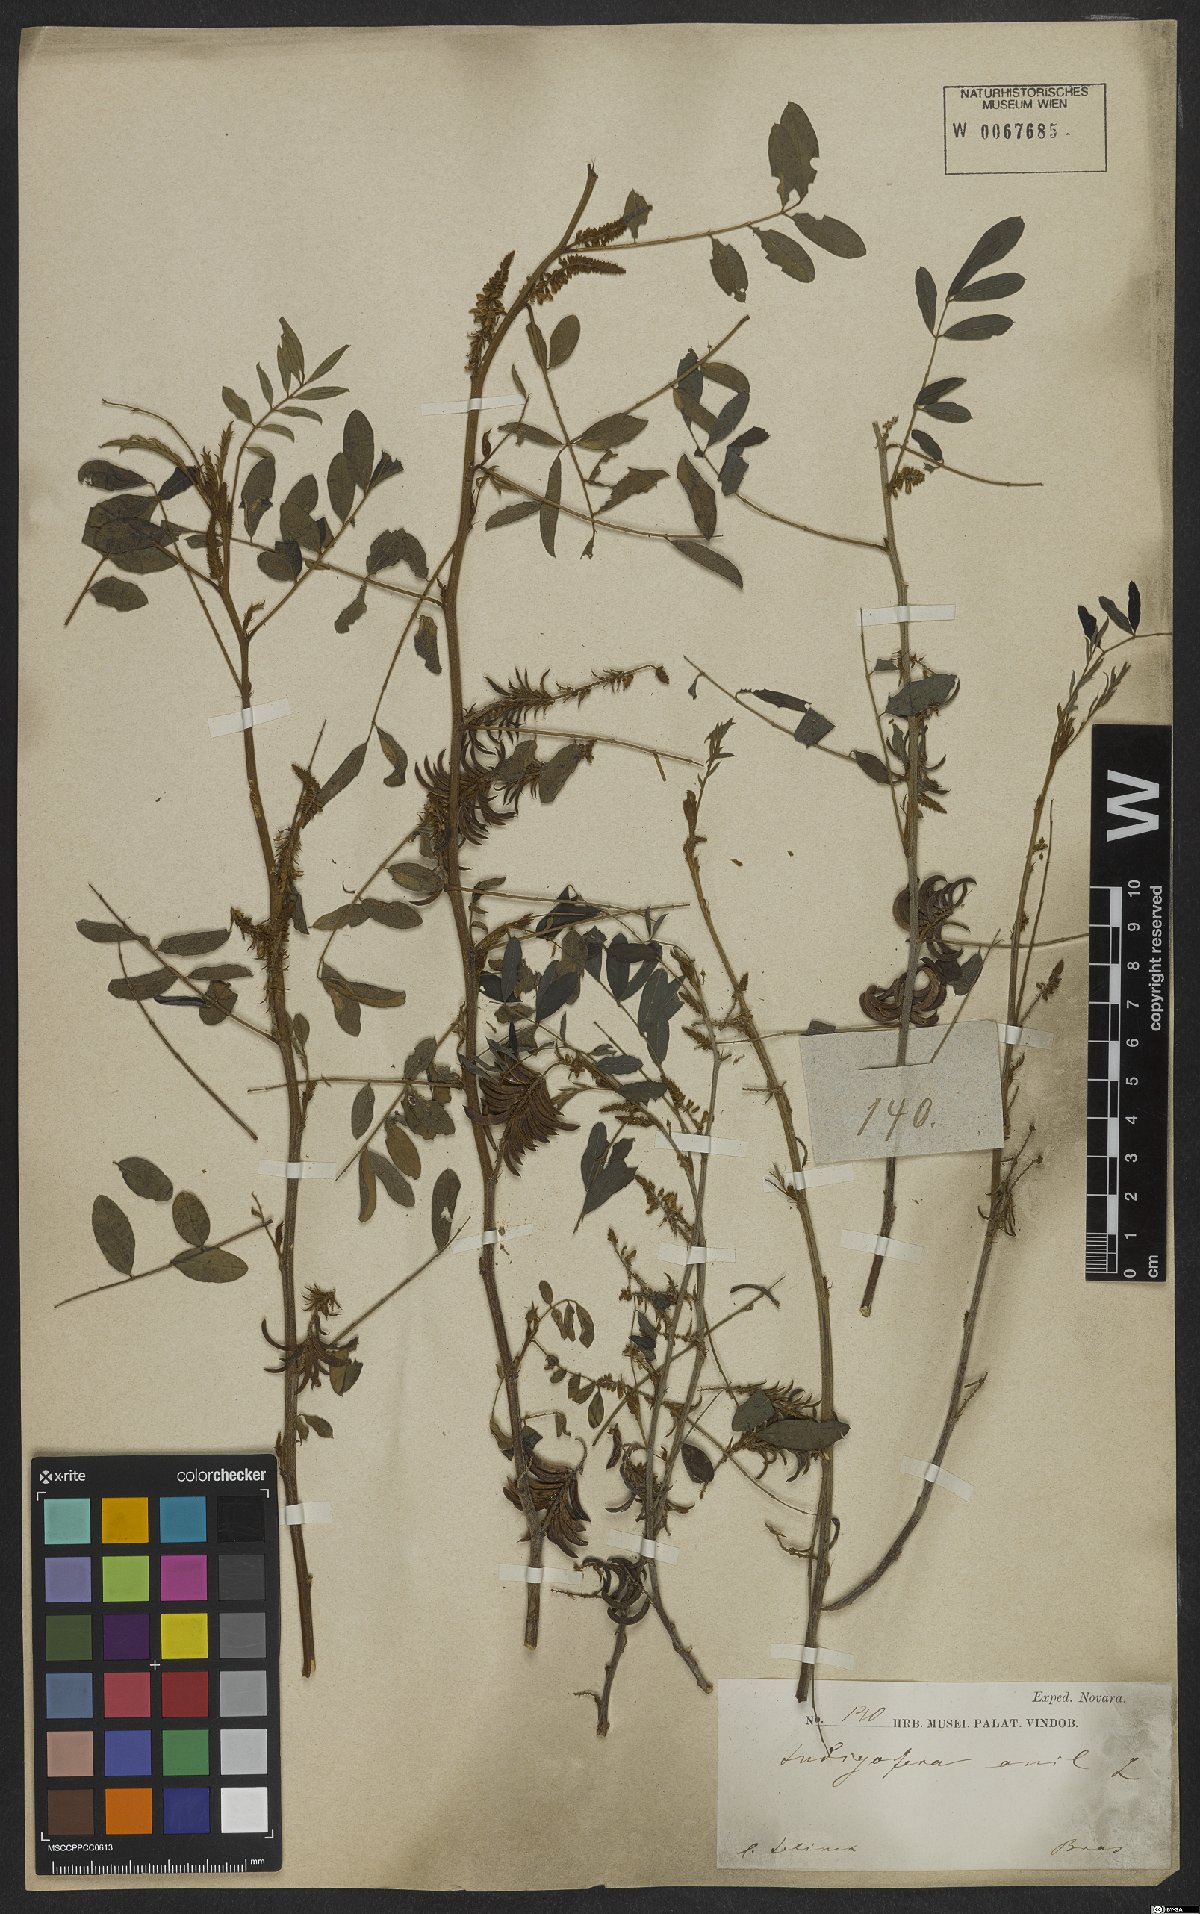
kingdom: Plantae
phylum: Tracheophyta
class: Magnoliopsida
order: Fabales
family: Fabaceae
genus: Indigofera
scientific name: Indigofera suffruticosa
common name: Anil de pasto
